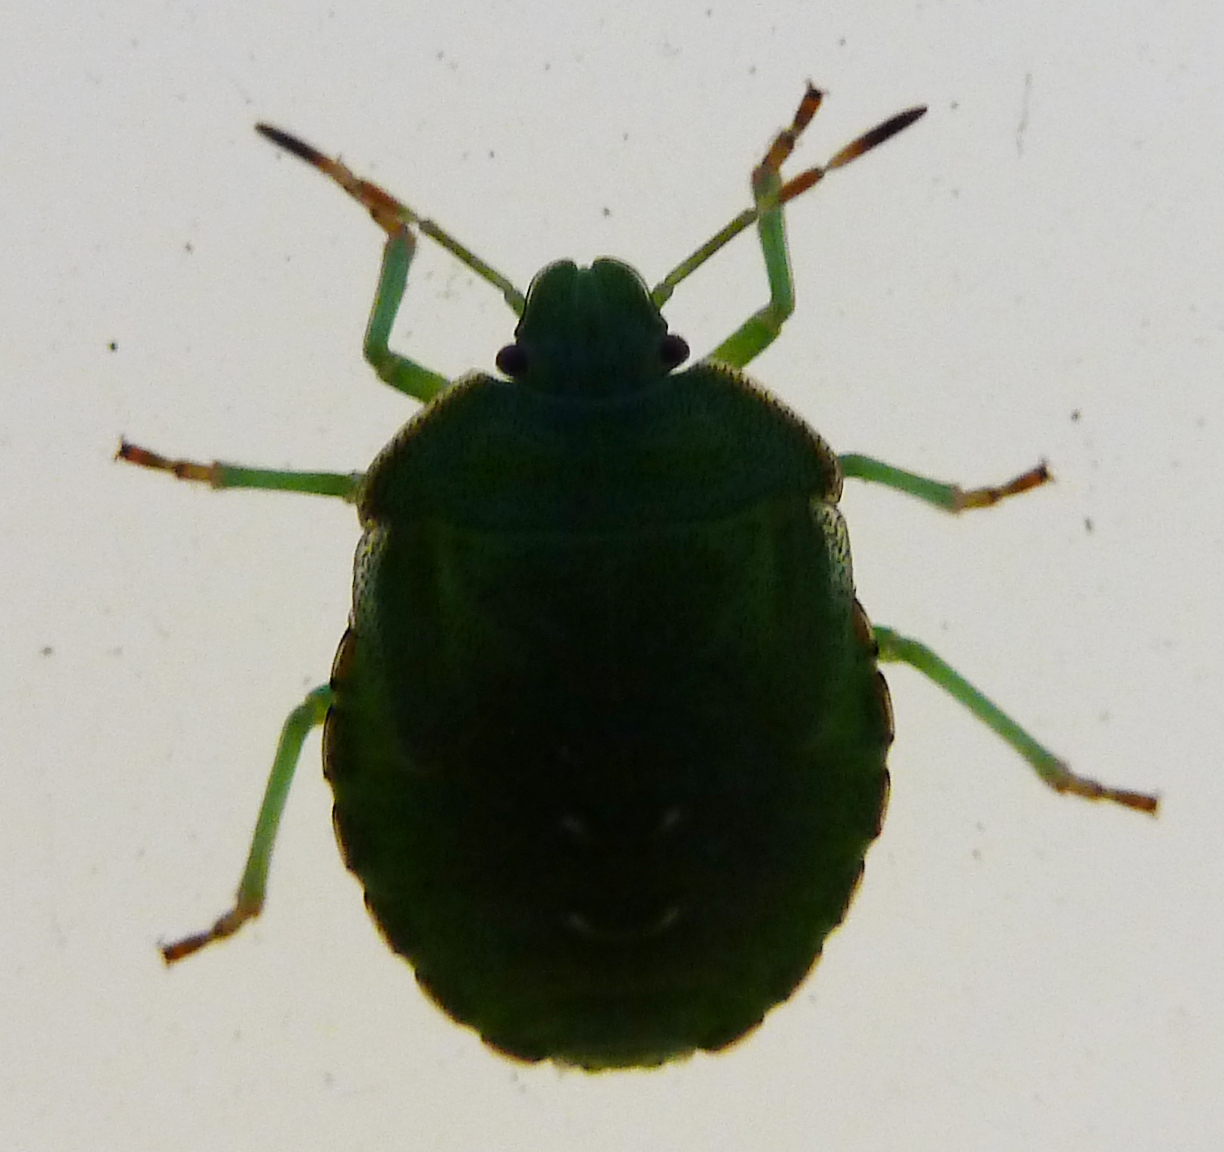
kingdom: Animalia
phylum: Arthropoda
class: Insecta
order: Hemiptera
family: Pentatomidae
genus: Palomena
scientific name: Palomena prasina
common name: Green shieldbug
